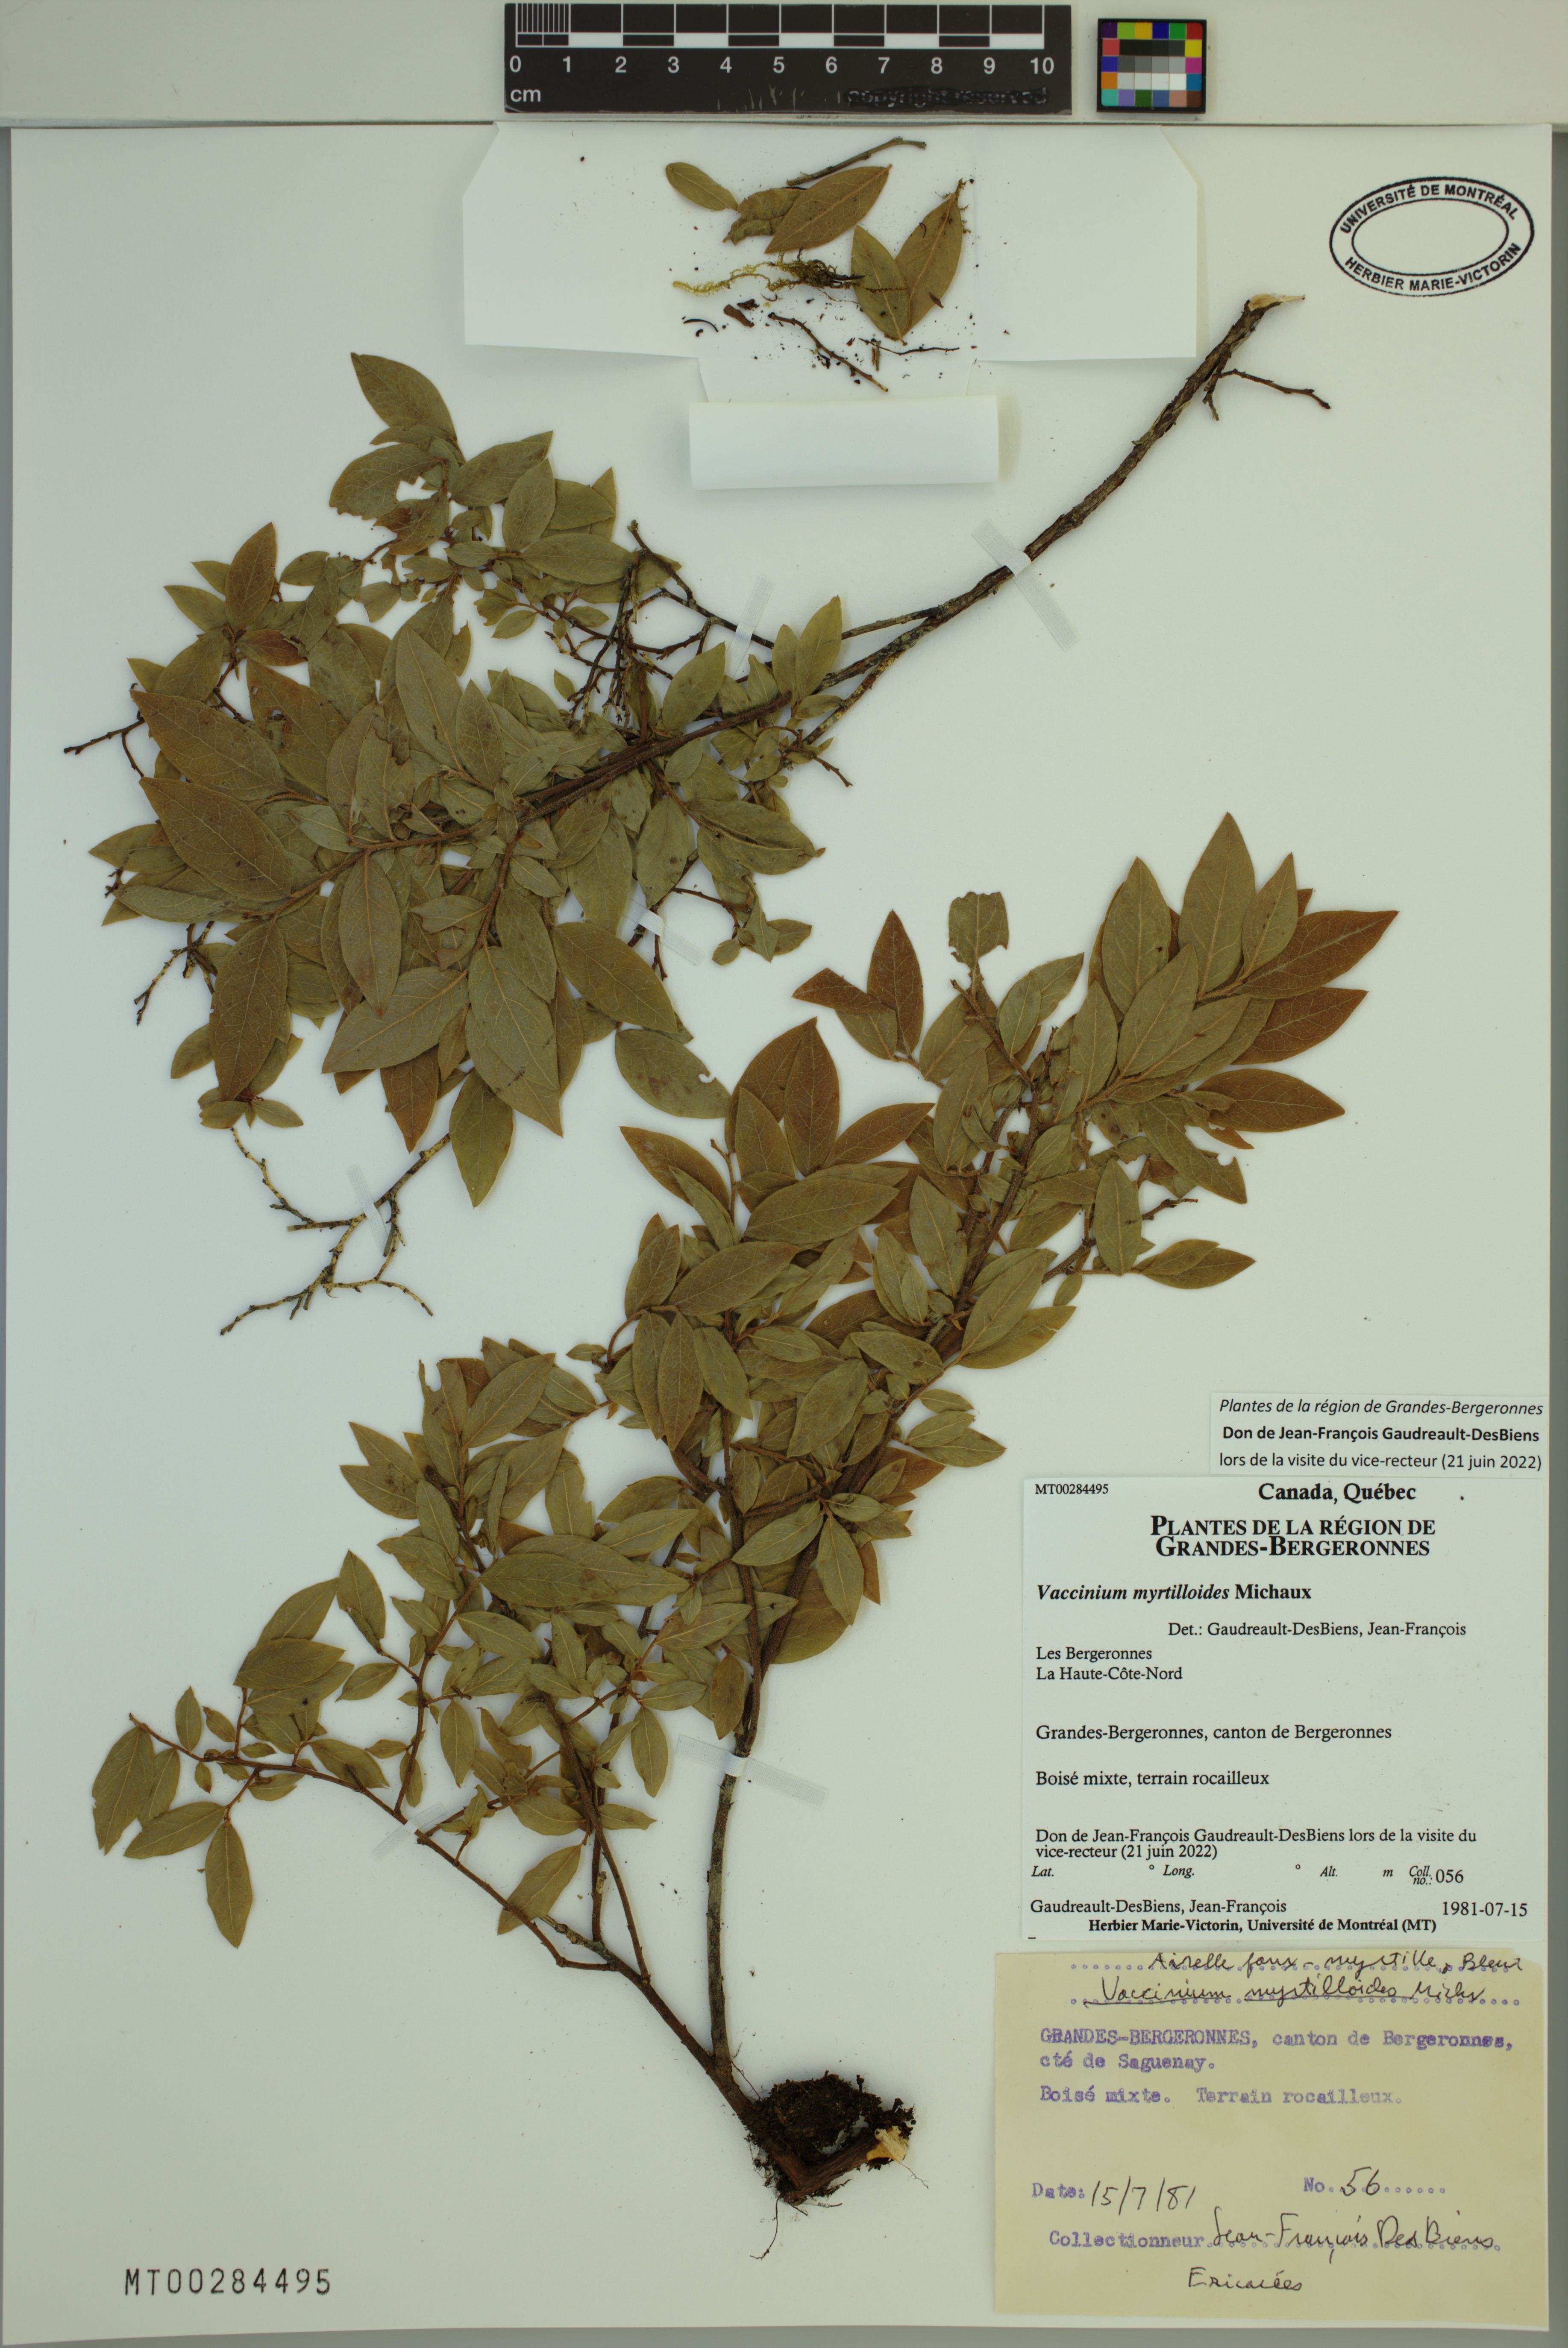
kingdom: Plantae
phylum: Tracheophyta
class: Magnoliopsida
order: Ericales
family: Ericaceae
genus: Vaccinium
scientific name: Vaccinium myrtilloides
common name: Canada blueberry
